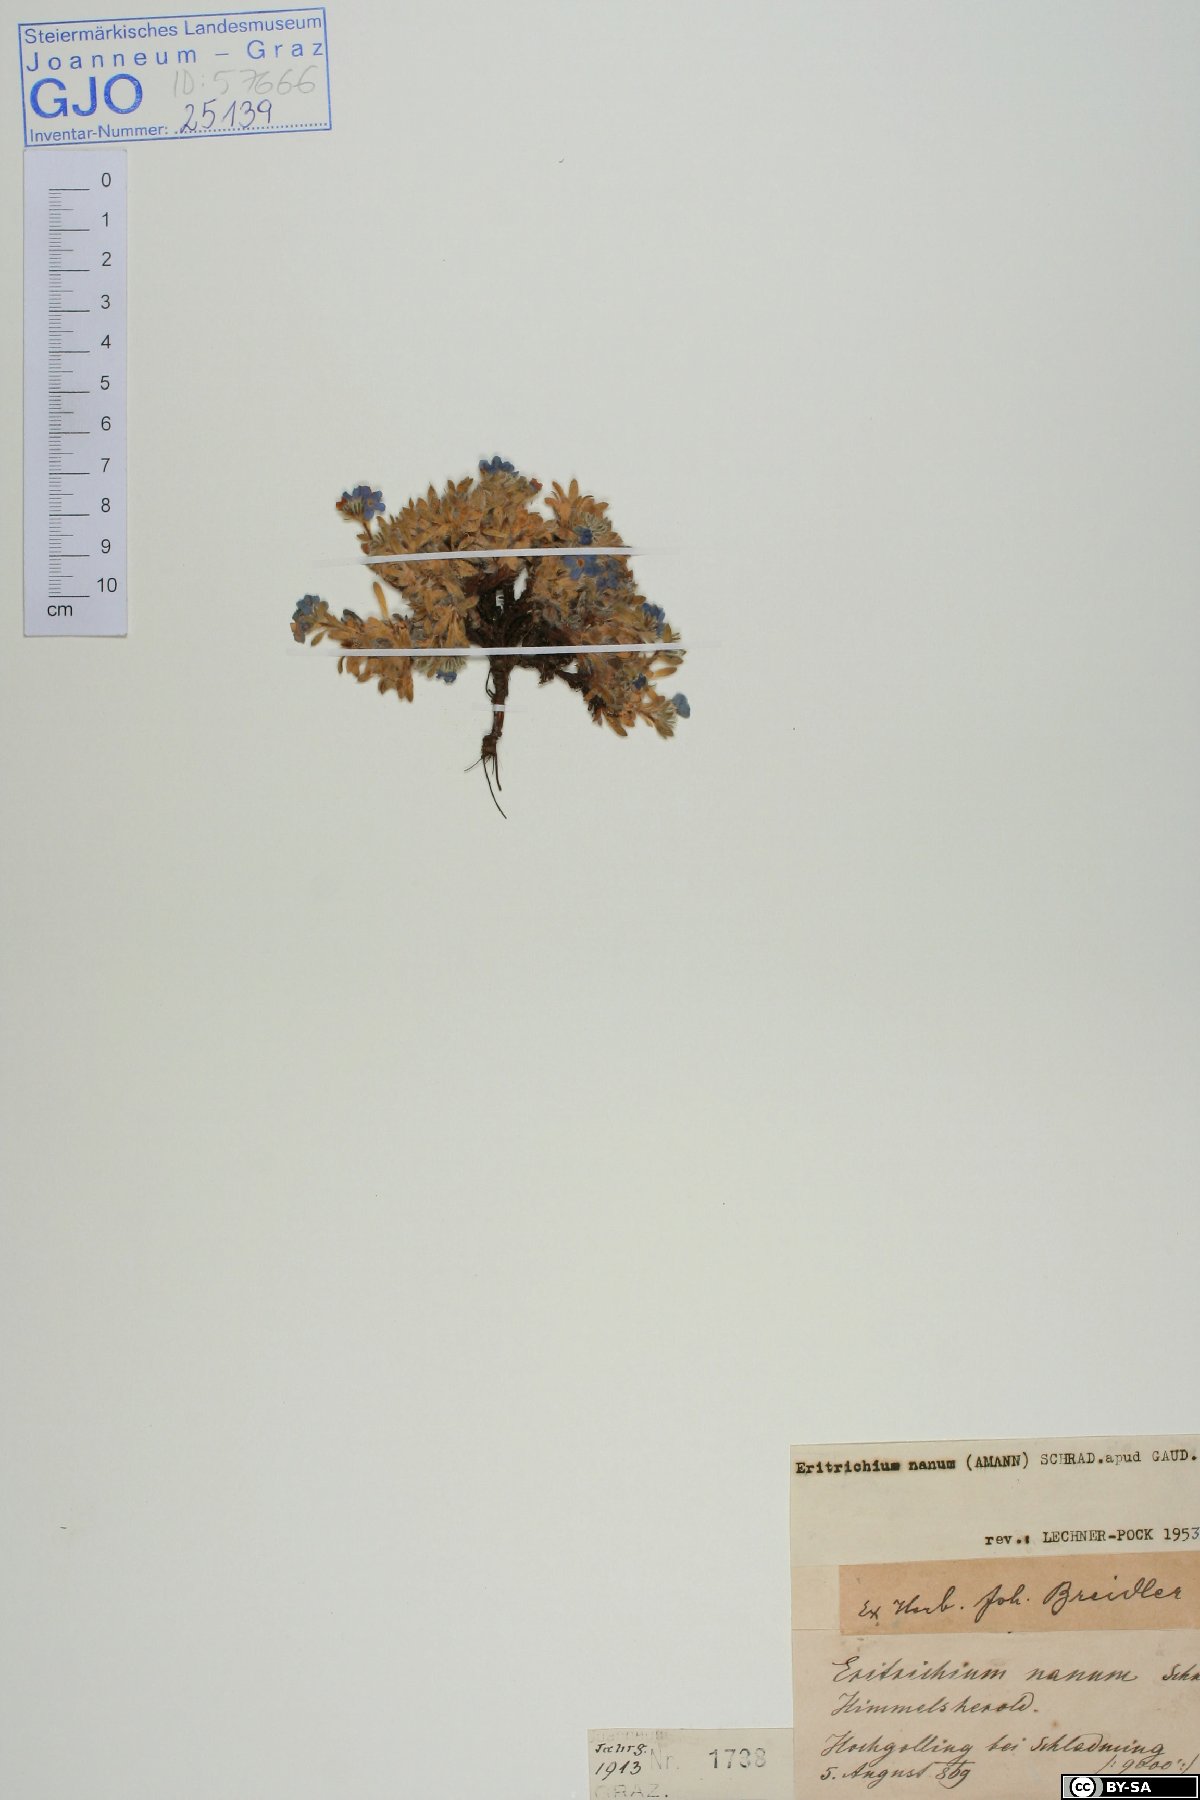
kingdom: Plantae
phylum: Tracheophyta
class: Magnoliopsida
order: Boraginales
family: Boraginaceae
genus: Eritrichium
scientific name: Eritrichium nanum
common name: King-of-the-alps
